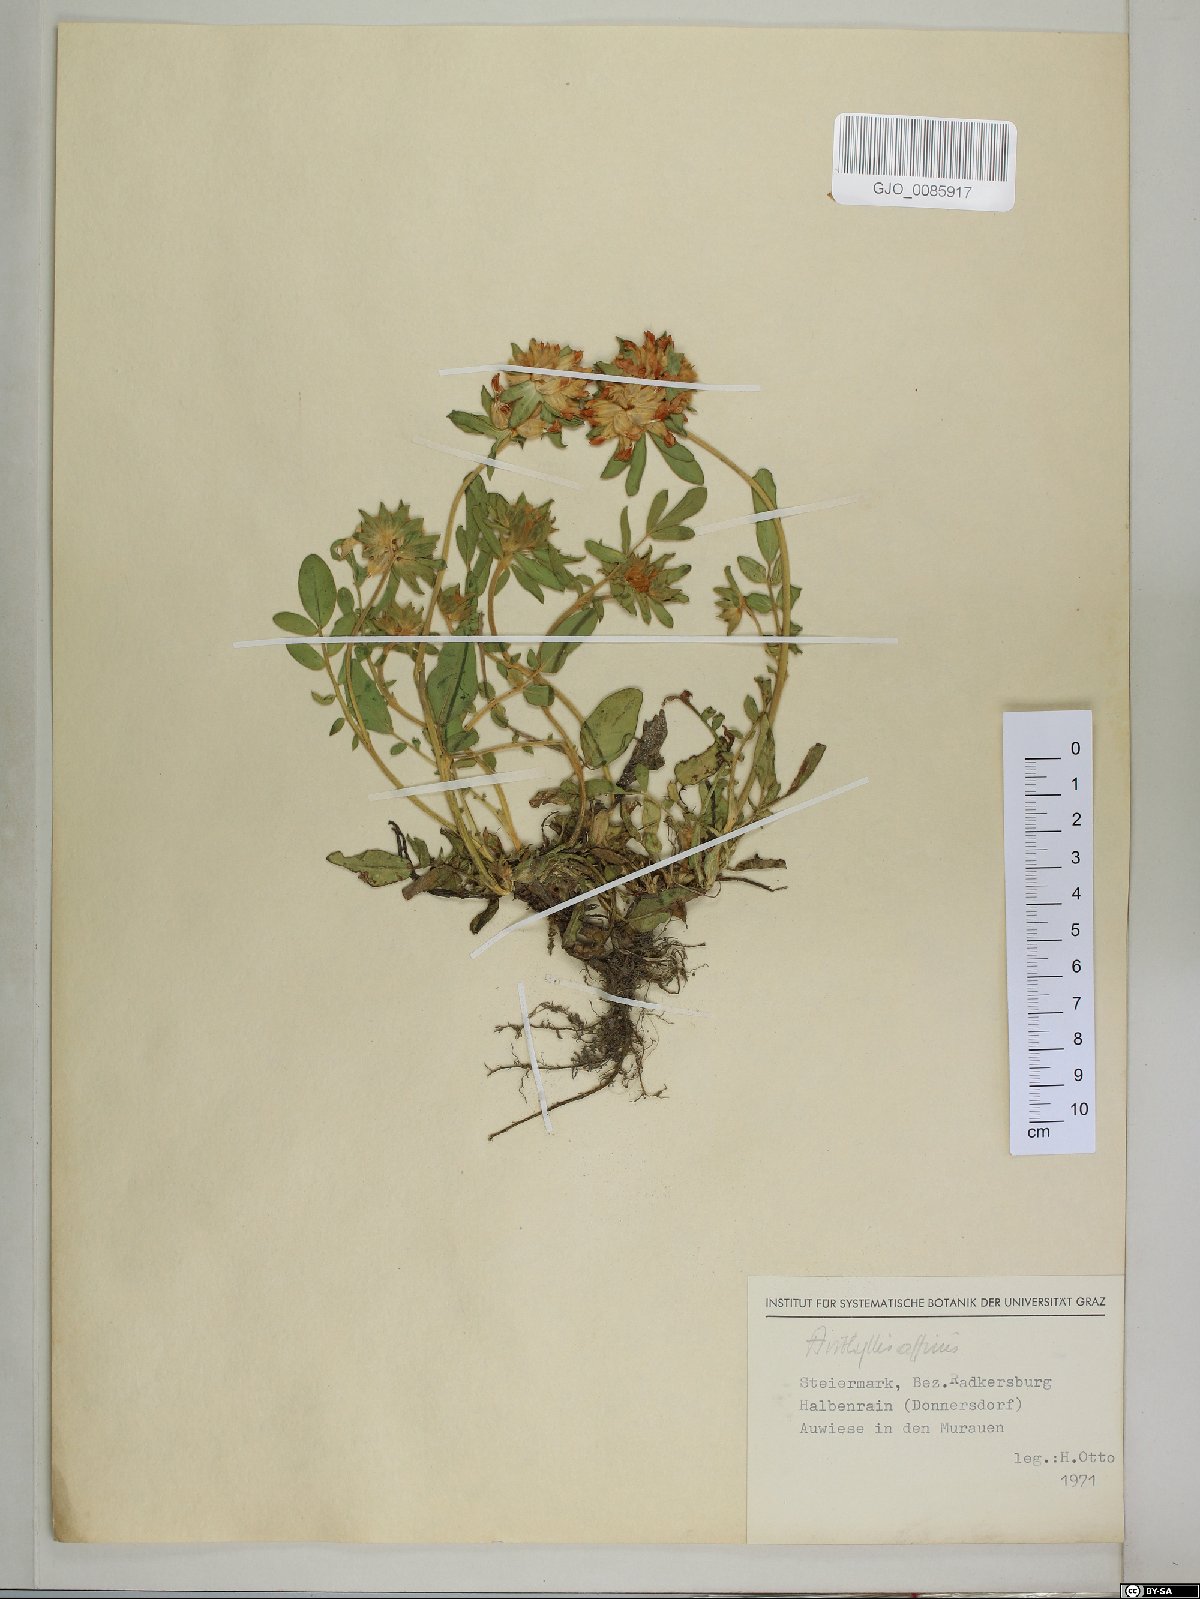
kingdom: Plantae
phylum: Tracheophyta
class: Magnoliopsida
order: Fabales
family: Fabaceae
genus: Anthyllis
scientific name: Anthyllis vulneraria
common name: Kidney vetch
